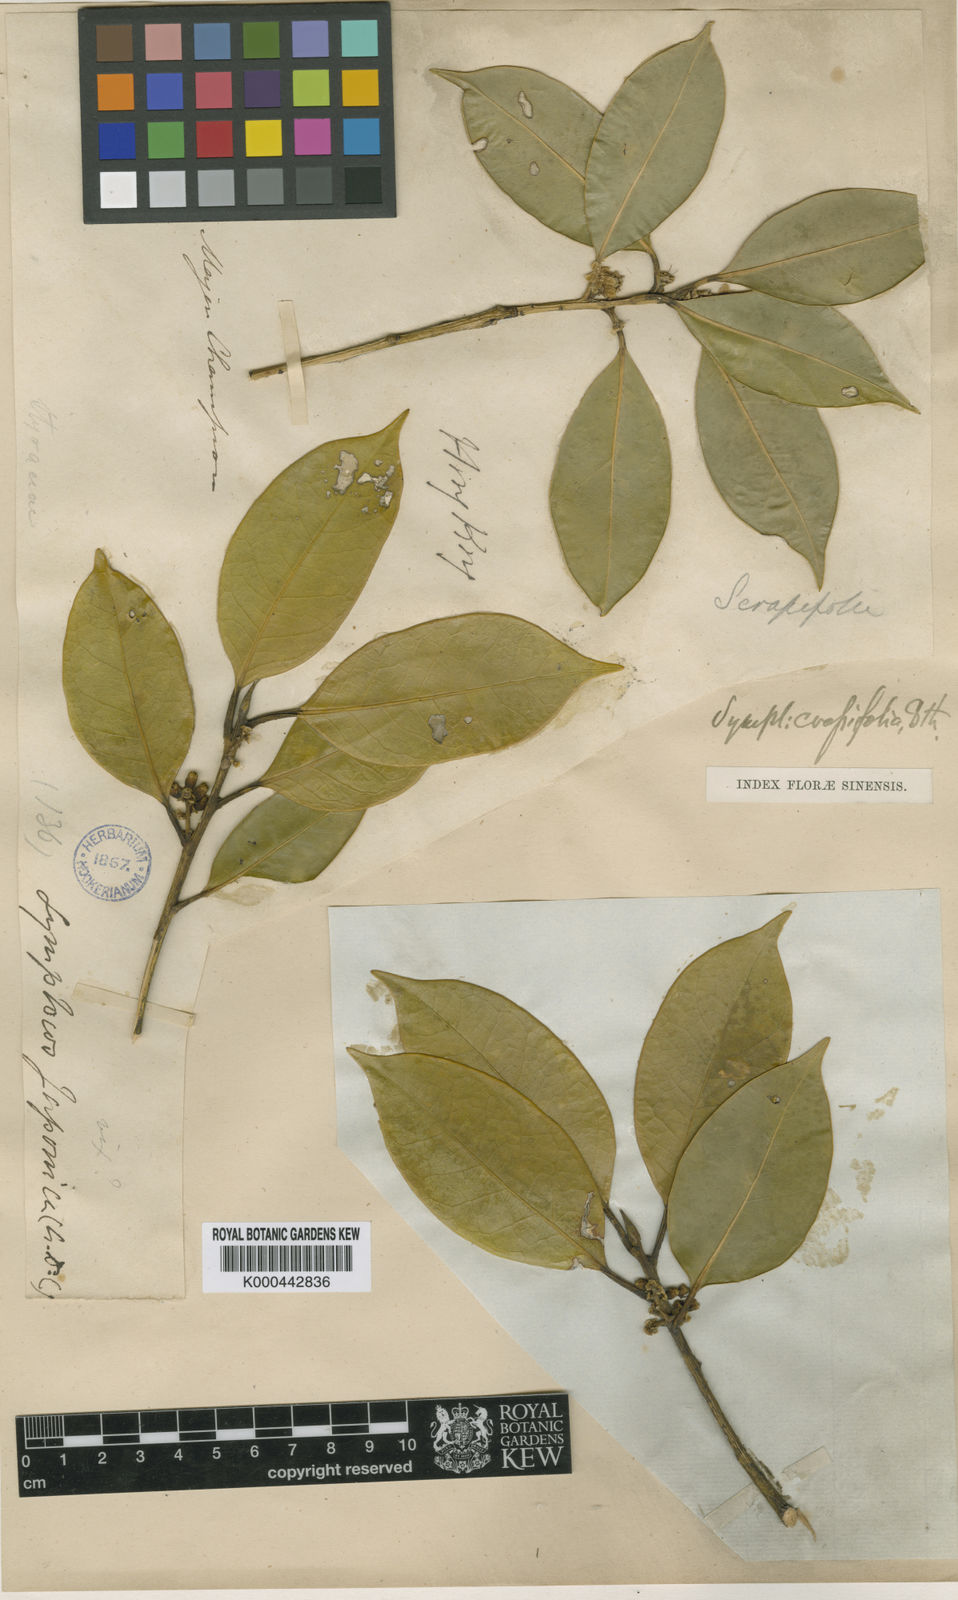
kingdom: Plantae
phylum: Tracheophyta
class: Magnoliopsida
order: Ericales
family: Symplocaceae
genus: Symplocos
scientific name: Symplocos
